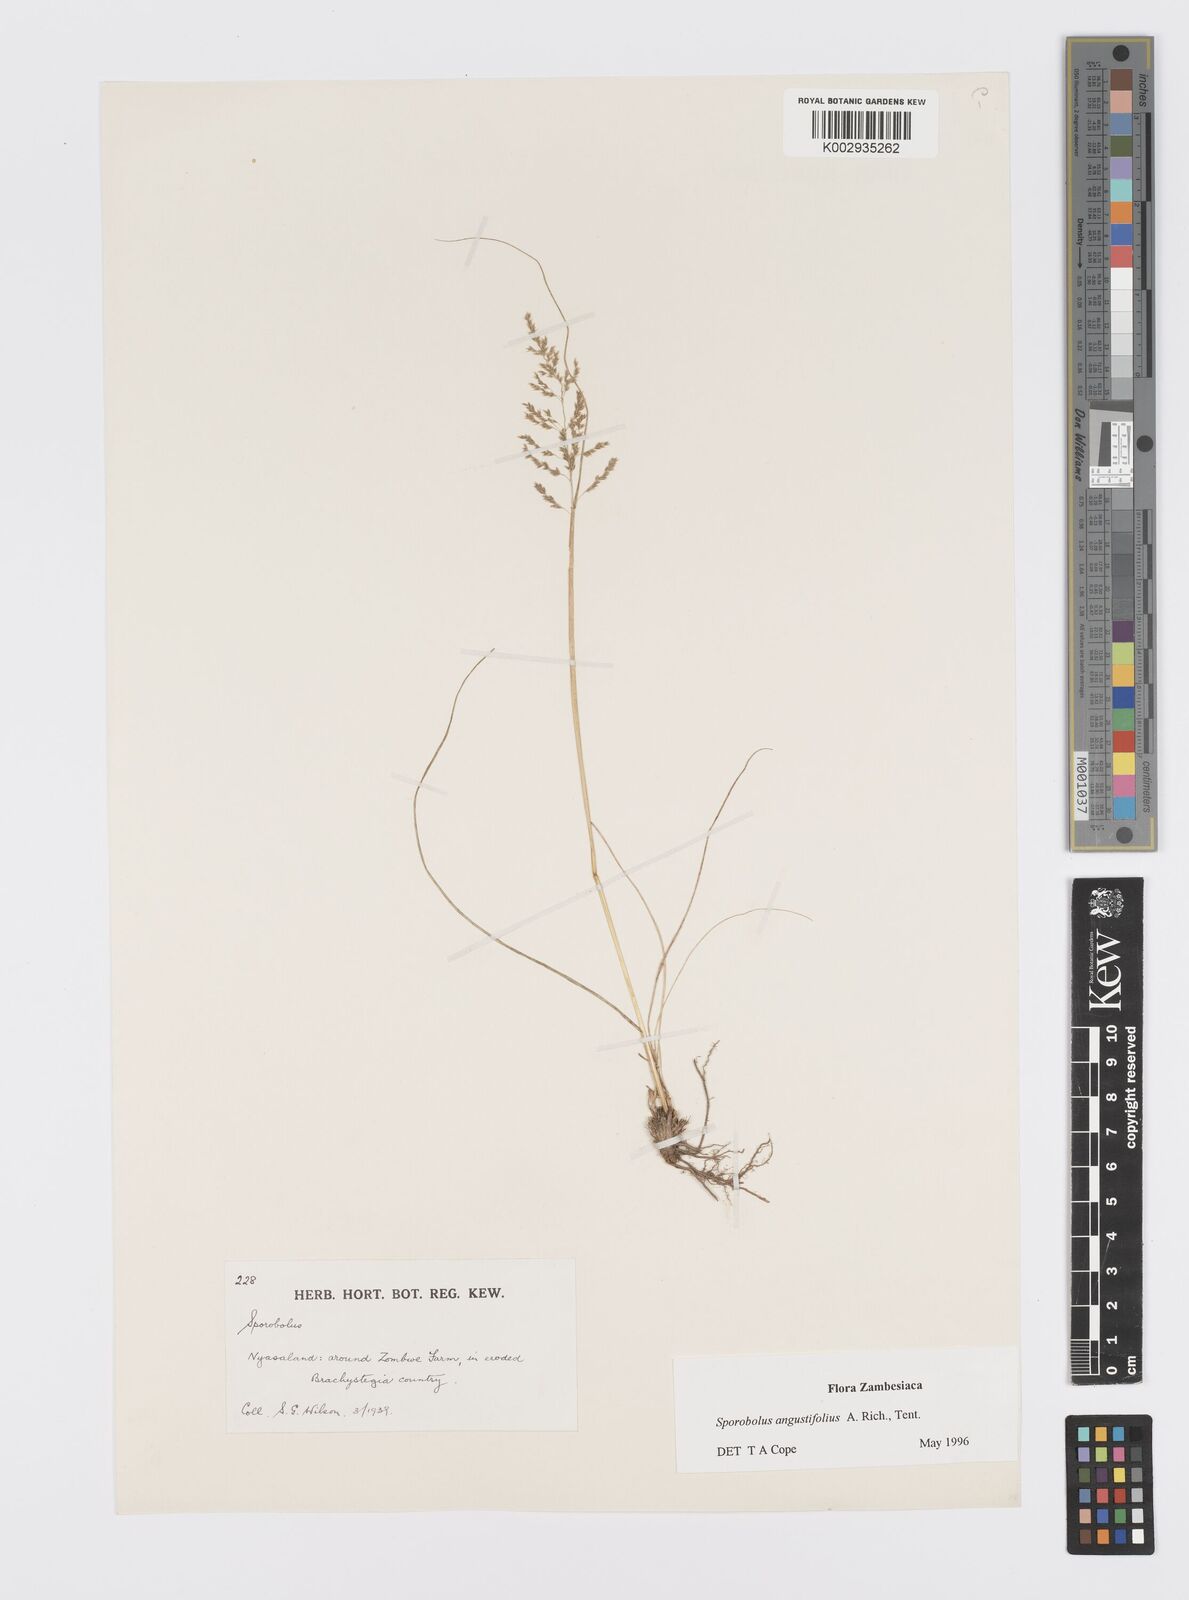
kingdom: Plantae
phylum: Tracheophyta
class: Liliopsida
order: Poales
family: Poaceae
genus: Sporobolus
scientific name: Sporobolus angustifolius
